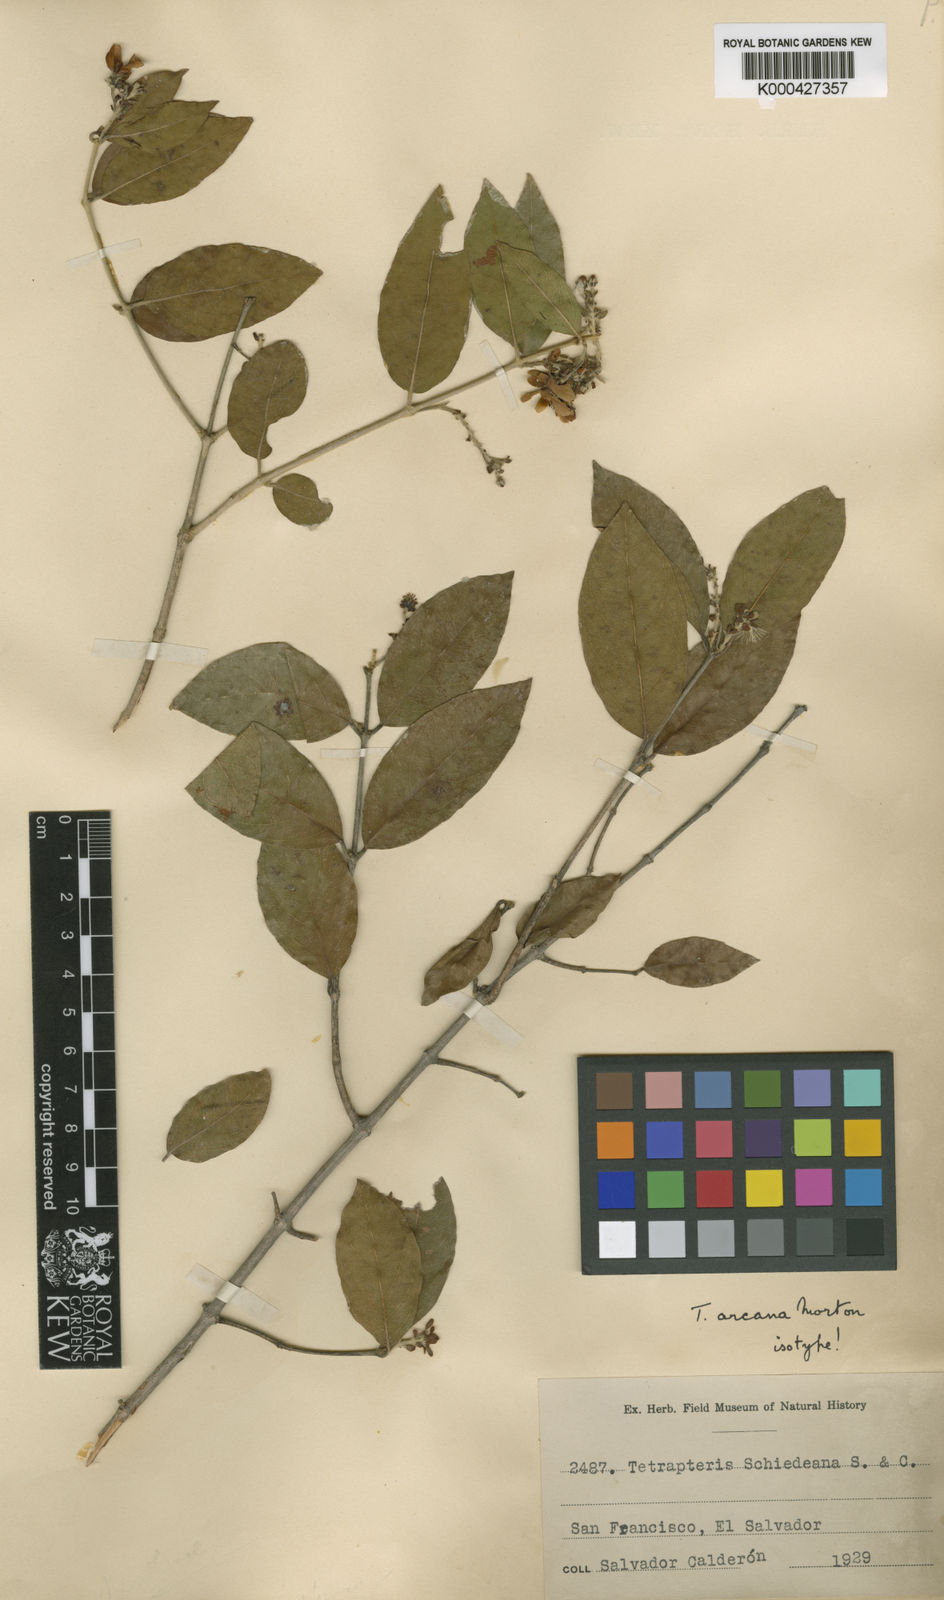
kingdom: Plantae
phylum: Tracheophyta
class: Magnoliopsida
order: Malpighiales
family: Malpighiaceae
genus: Glicophyllum
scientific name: Glicophyllum arcanum
